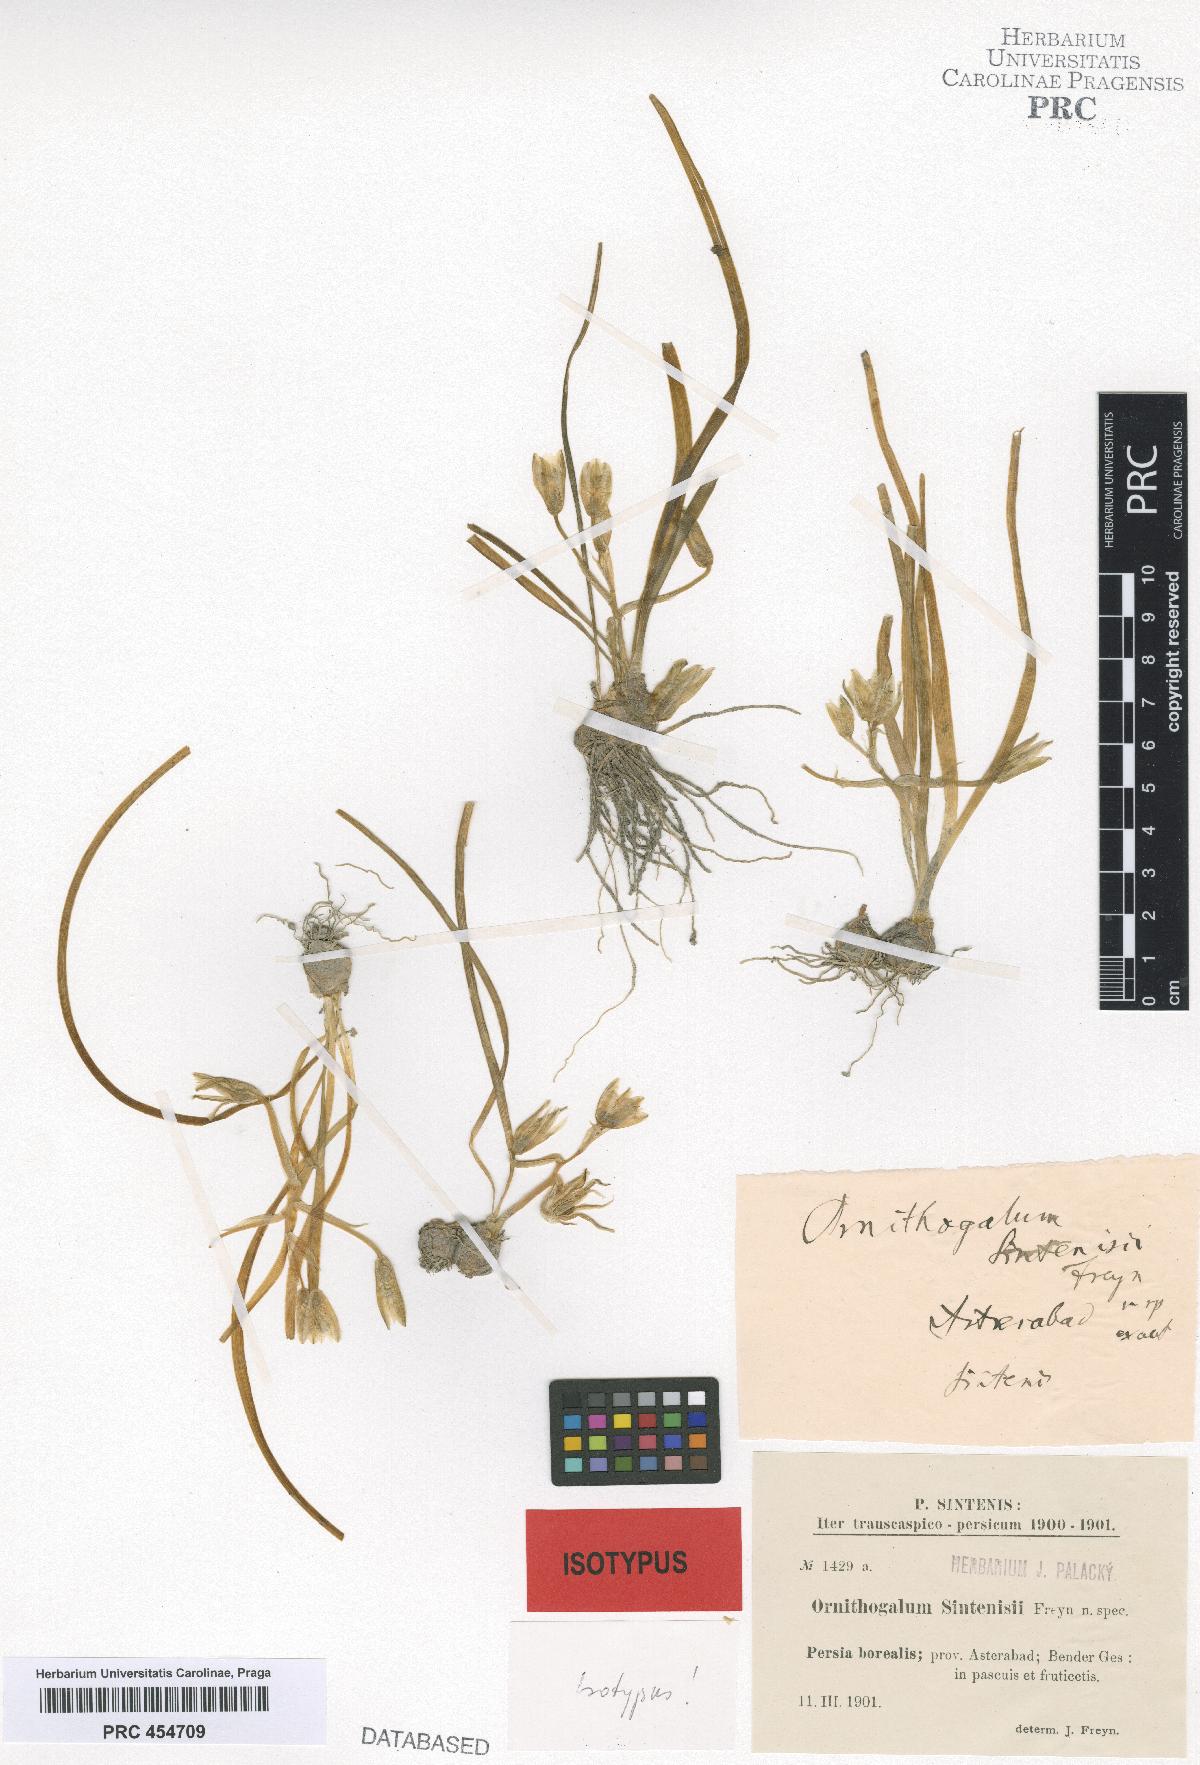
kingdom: Plantae
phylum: Tracheophyta
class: Liliopsida
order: Asparagales
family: Asparagaceae
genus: Ornithogalum
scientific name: Ornithogalum sintenisii
